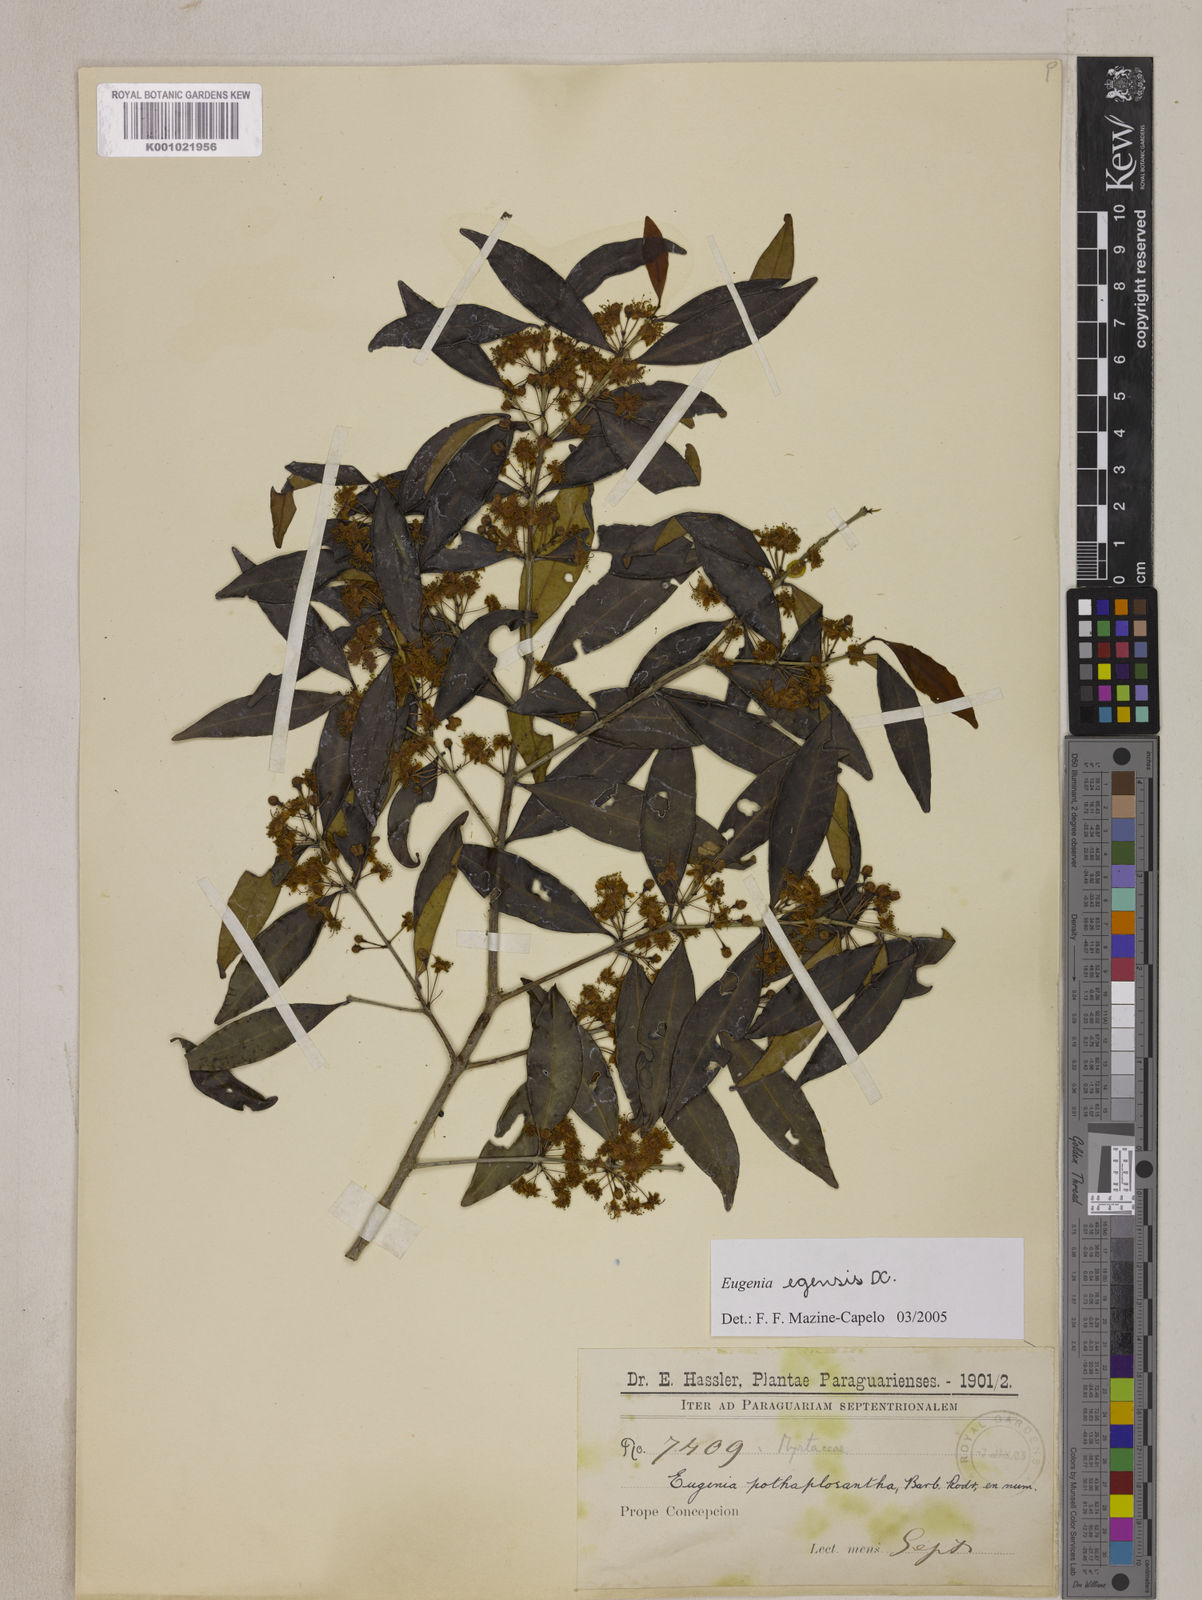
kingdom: Plantae
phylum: Tracheophyta
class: Magnoliopsida
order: Myrtales
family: Myrtaceae
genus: Eugenia
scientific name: Eugenia egensis
